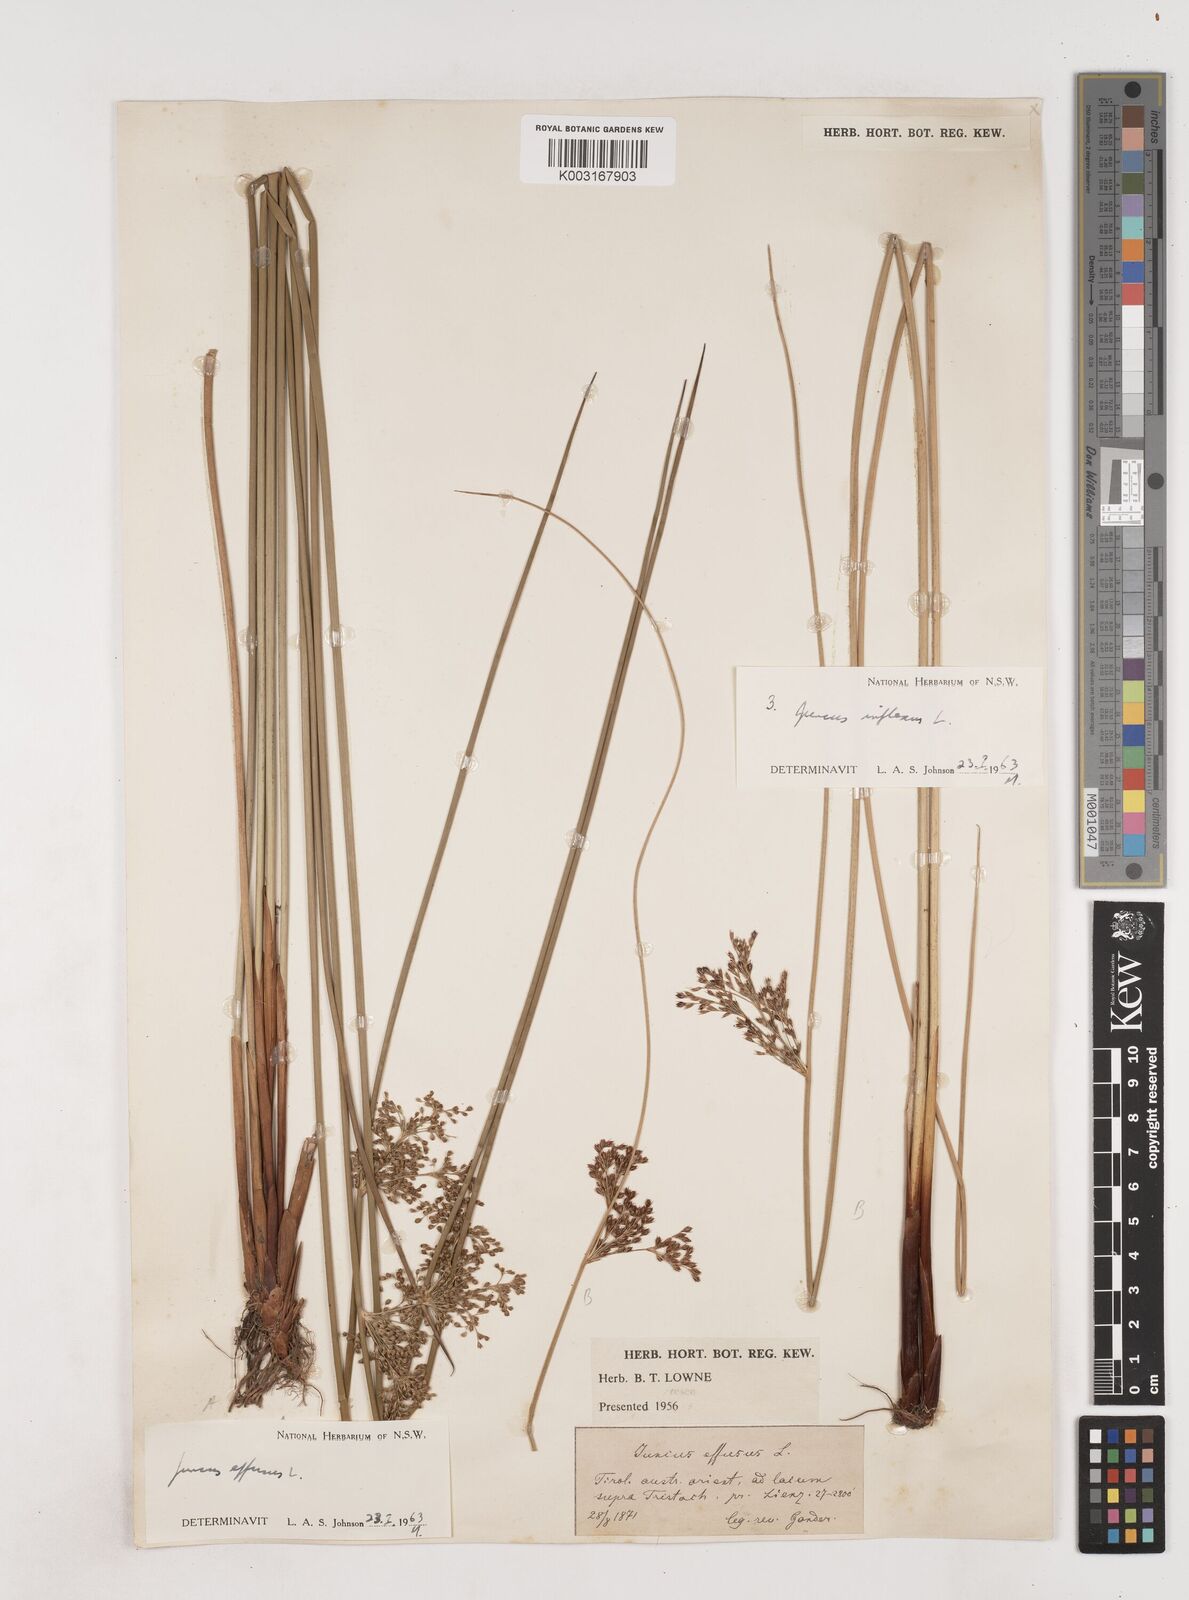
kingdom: Plantae
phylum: Tracheophyta
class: Liliopsida
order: Poales
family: Juncaceae
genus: Juncus
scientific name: Juncus effusus
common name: Soft rush
